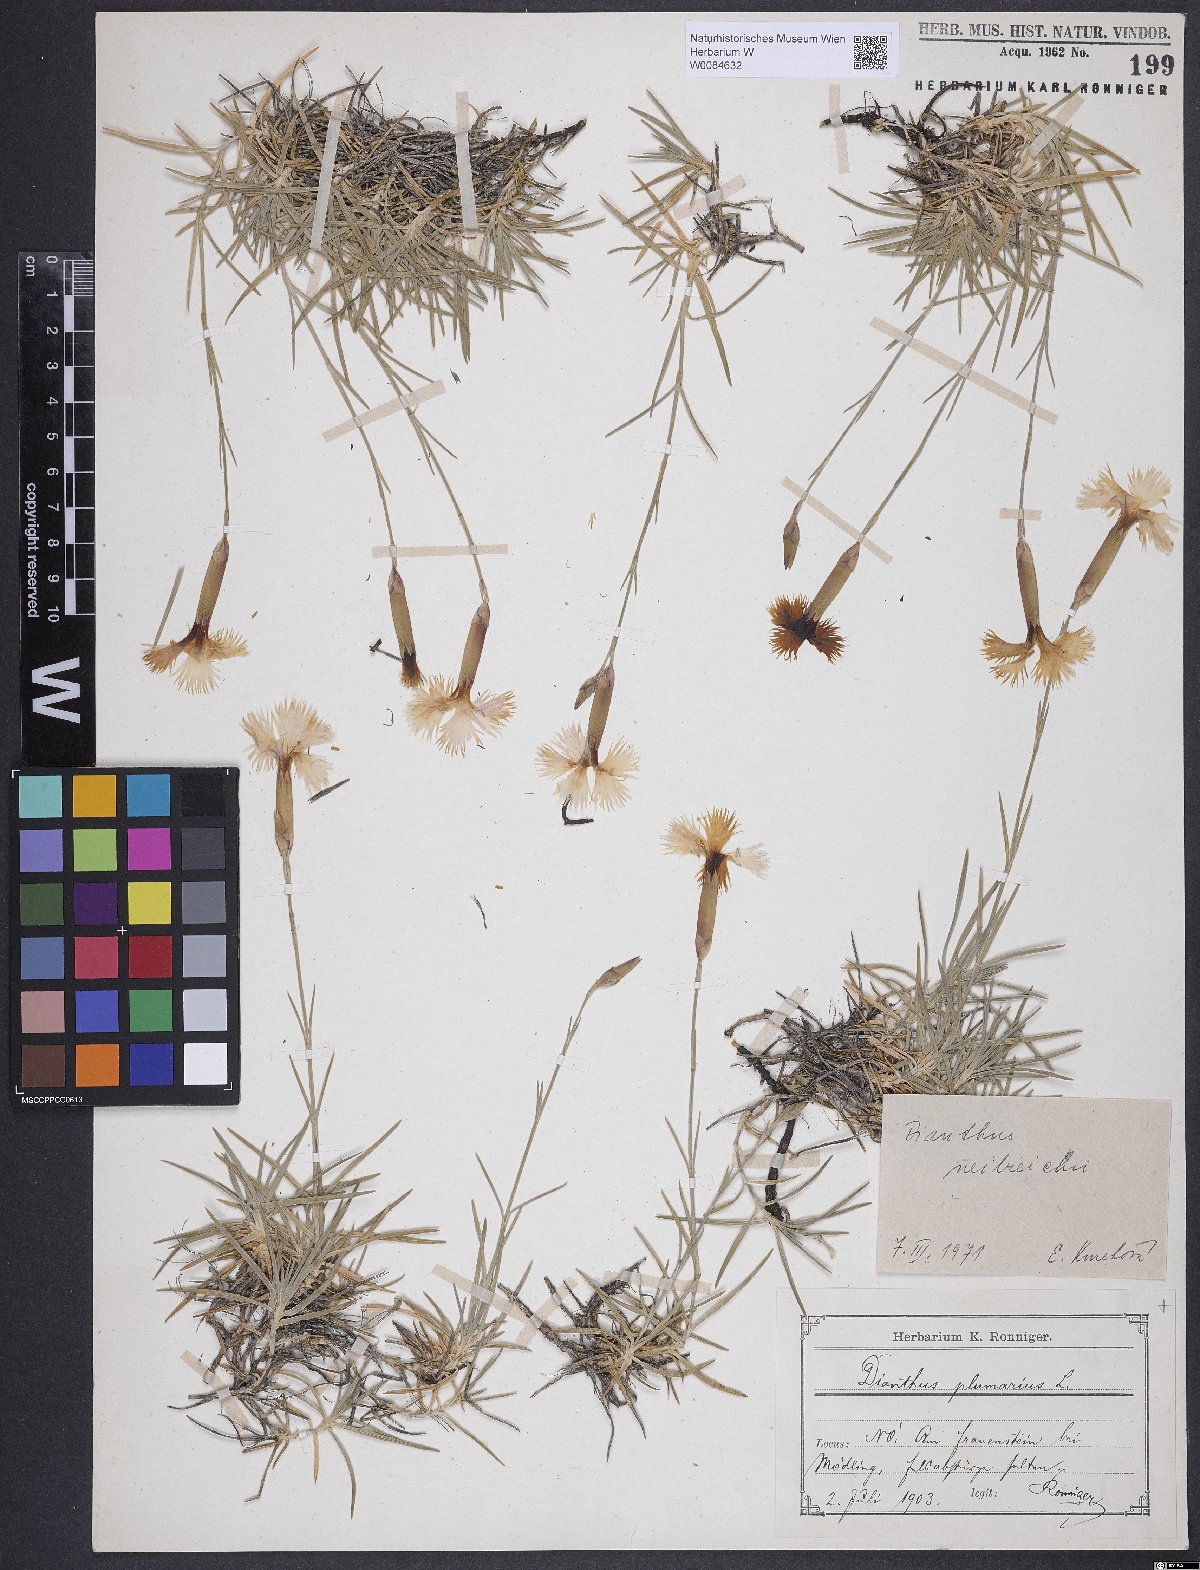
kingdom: Plantae
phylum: Tracheophyta
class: Magnoliopsida
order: Caryophyllales
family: Caryophyllaceae
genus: Dianthus
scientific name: Dianthus plumarius
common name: Pink
